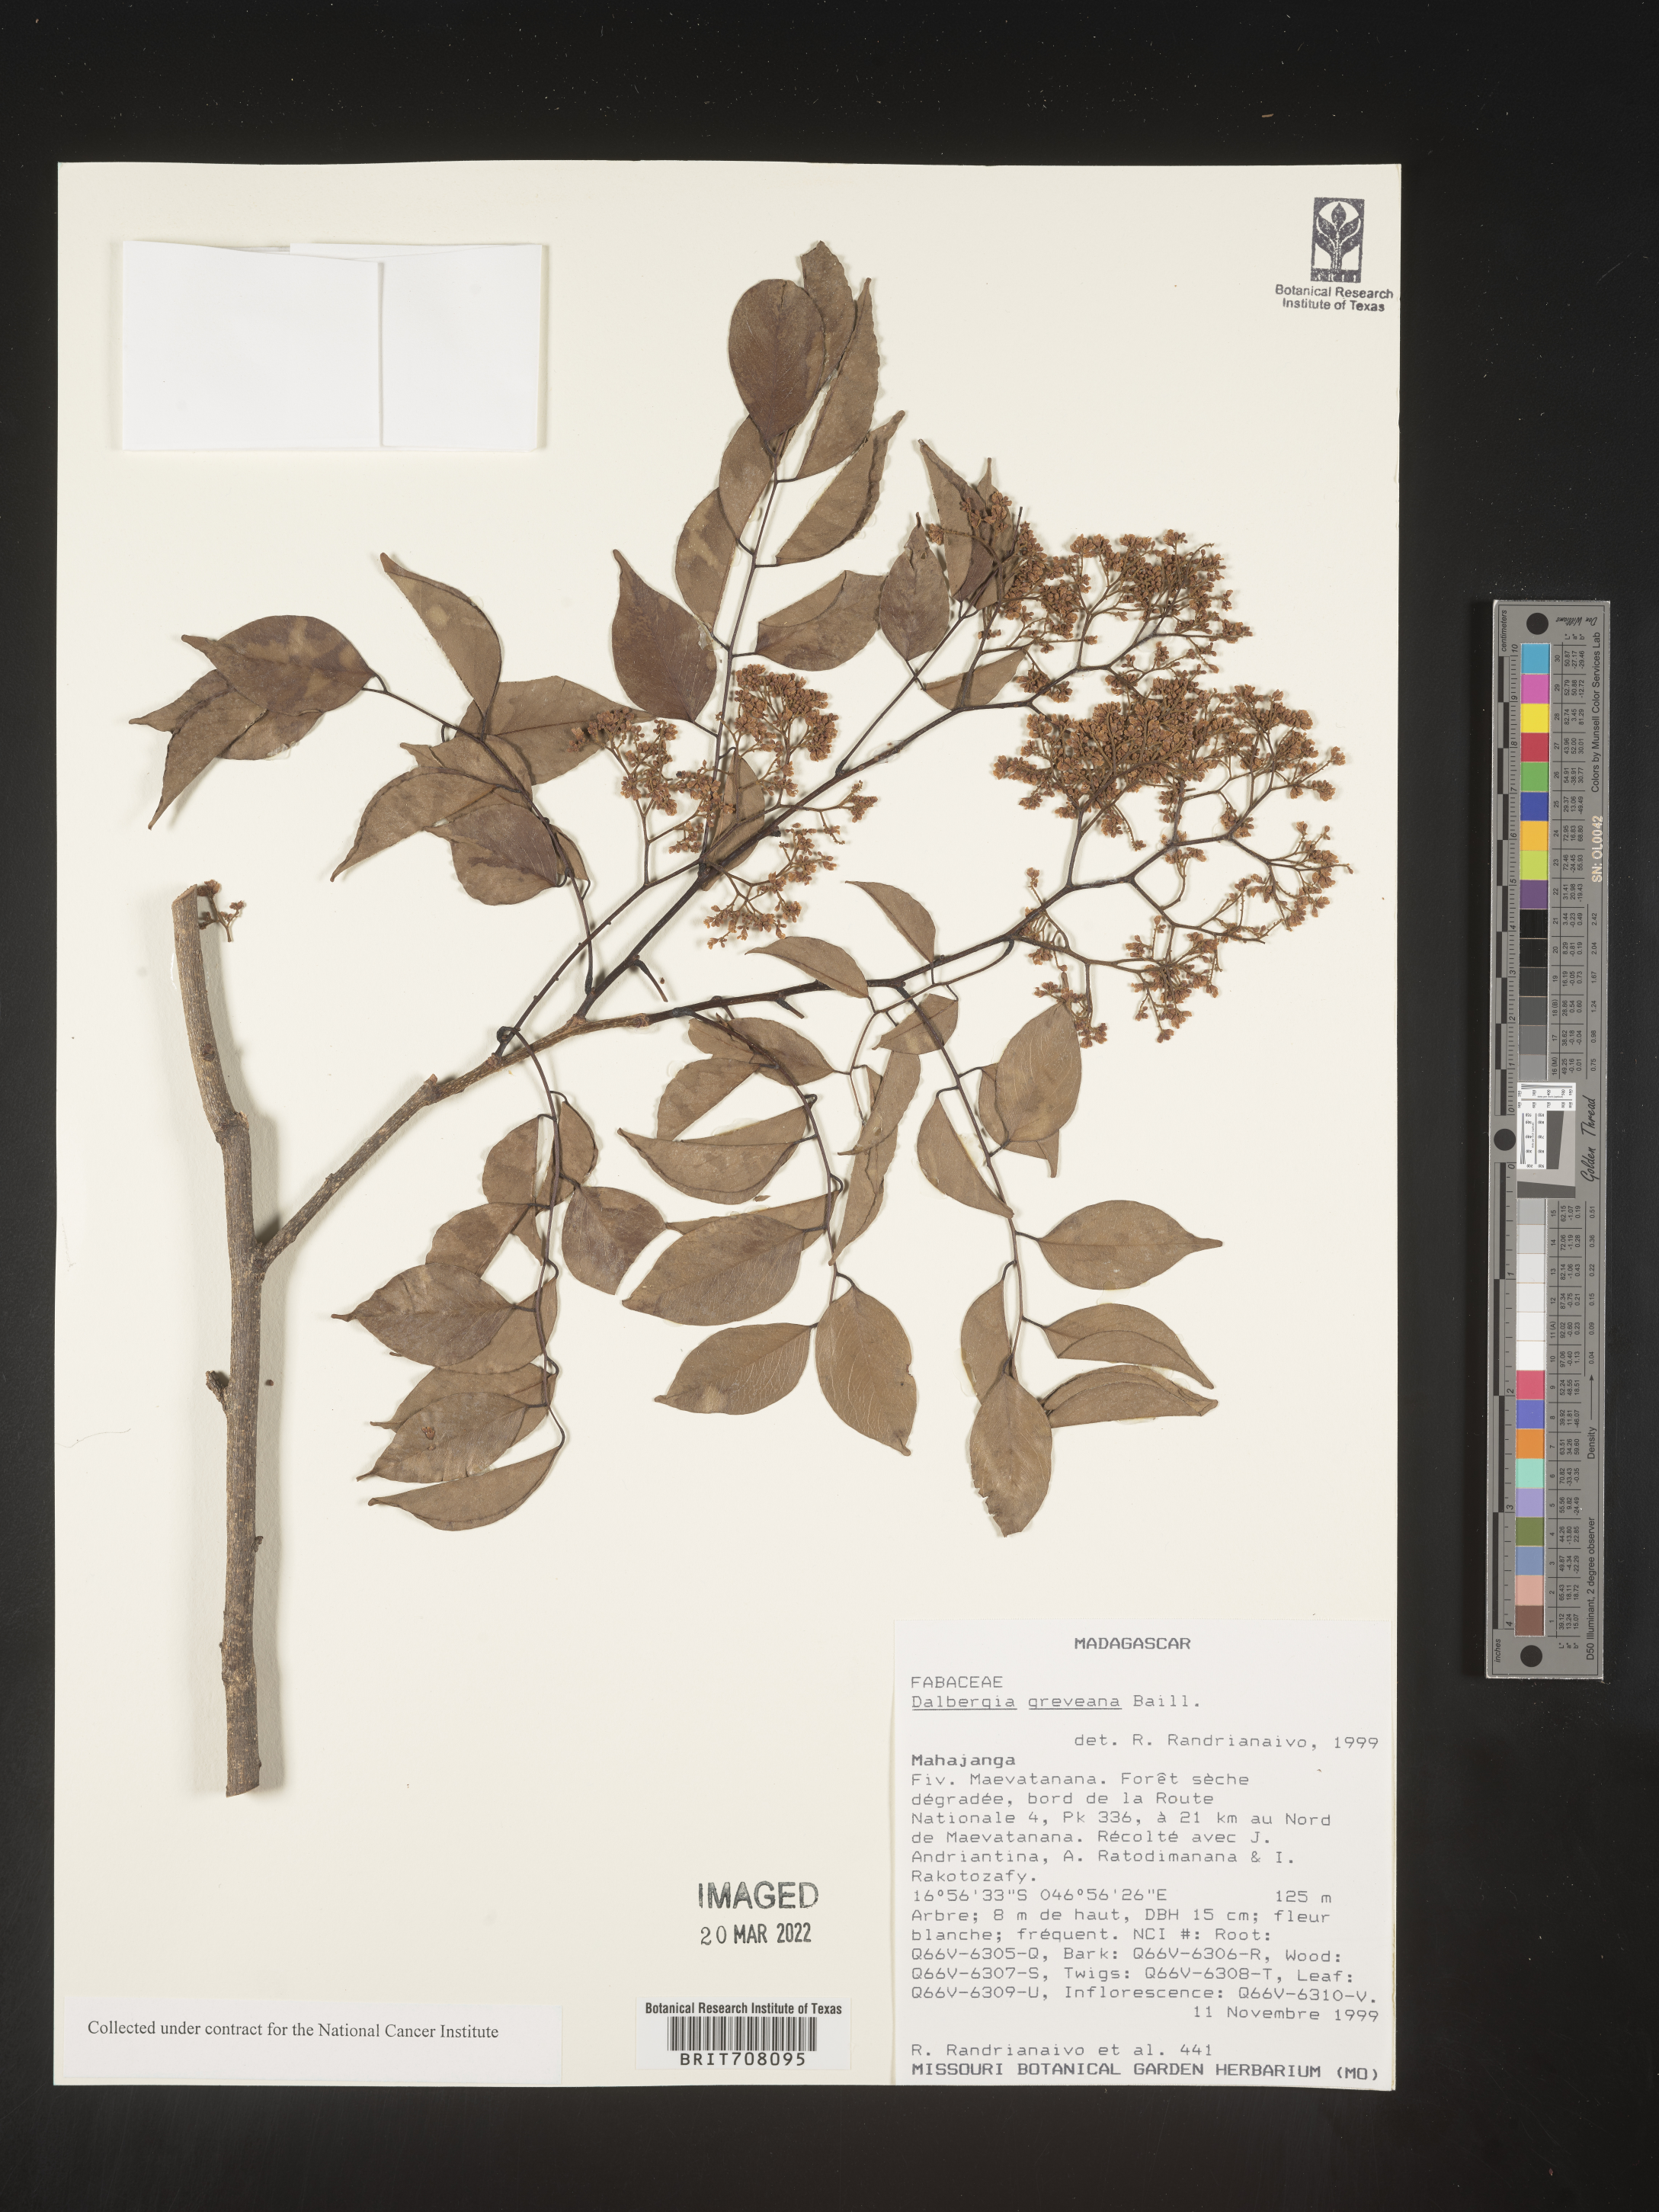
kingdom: Plantae
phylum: Tracheophyta
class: Magnoliopsida
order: Fabales
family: Fabaceae
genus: Dalbergia
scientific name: Dalbergia
